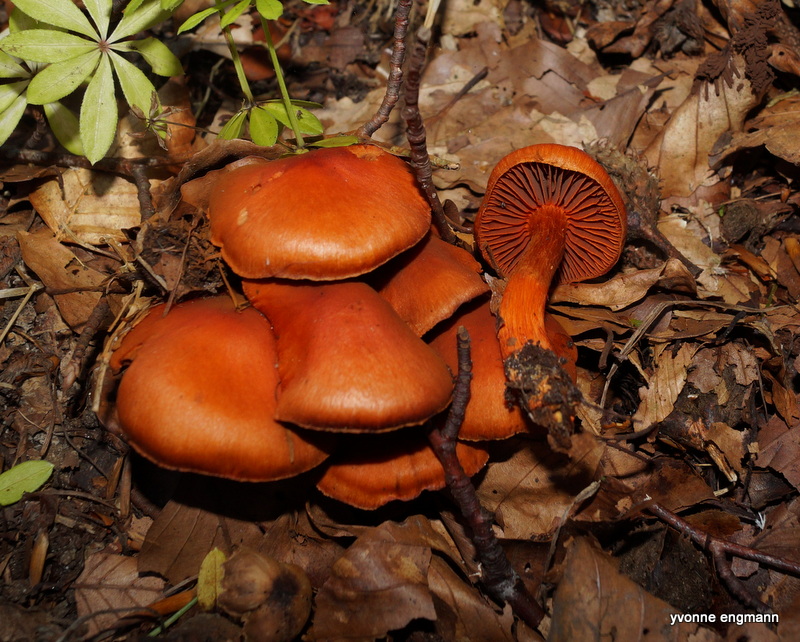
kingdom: Fungi
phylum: Basidiomycota
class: Agaricomycetes
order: Agaricales
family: Cortinariaceae
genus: Cortinarius
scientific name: Cortinarius cinnabarinus
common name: cinnober-slørhat
